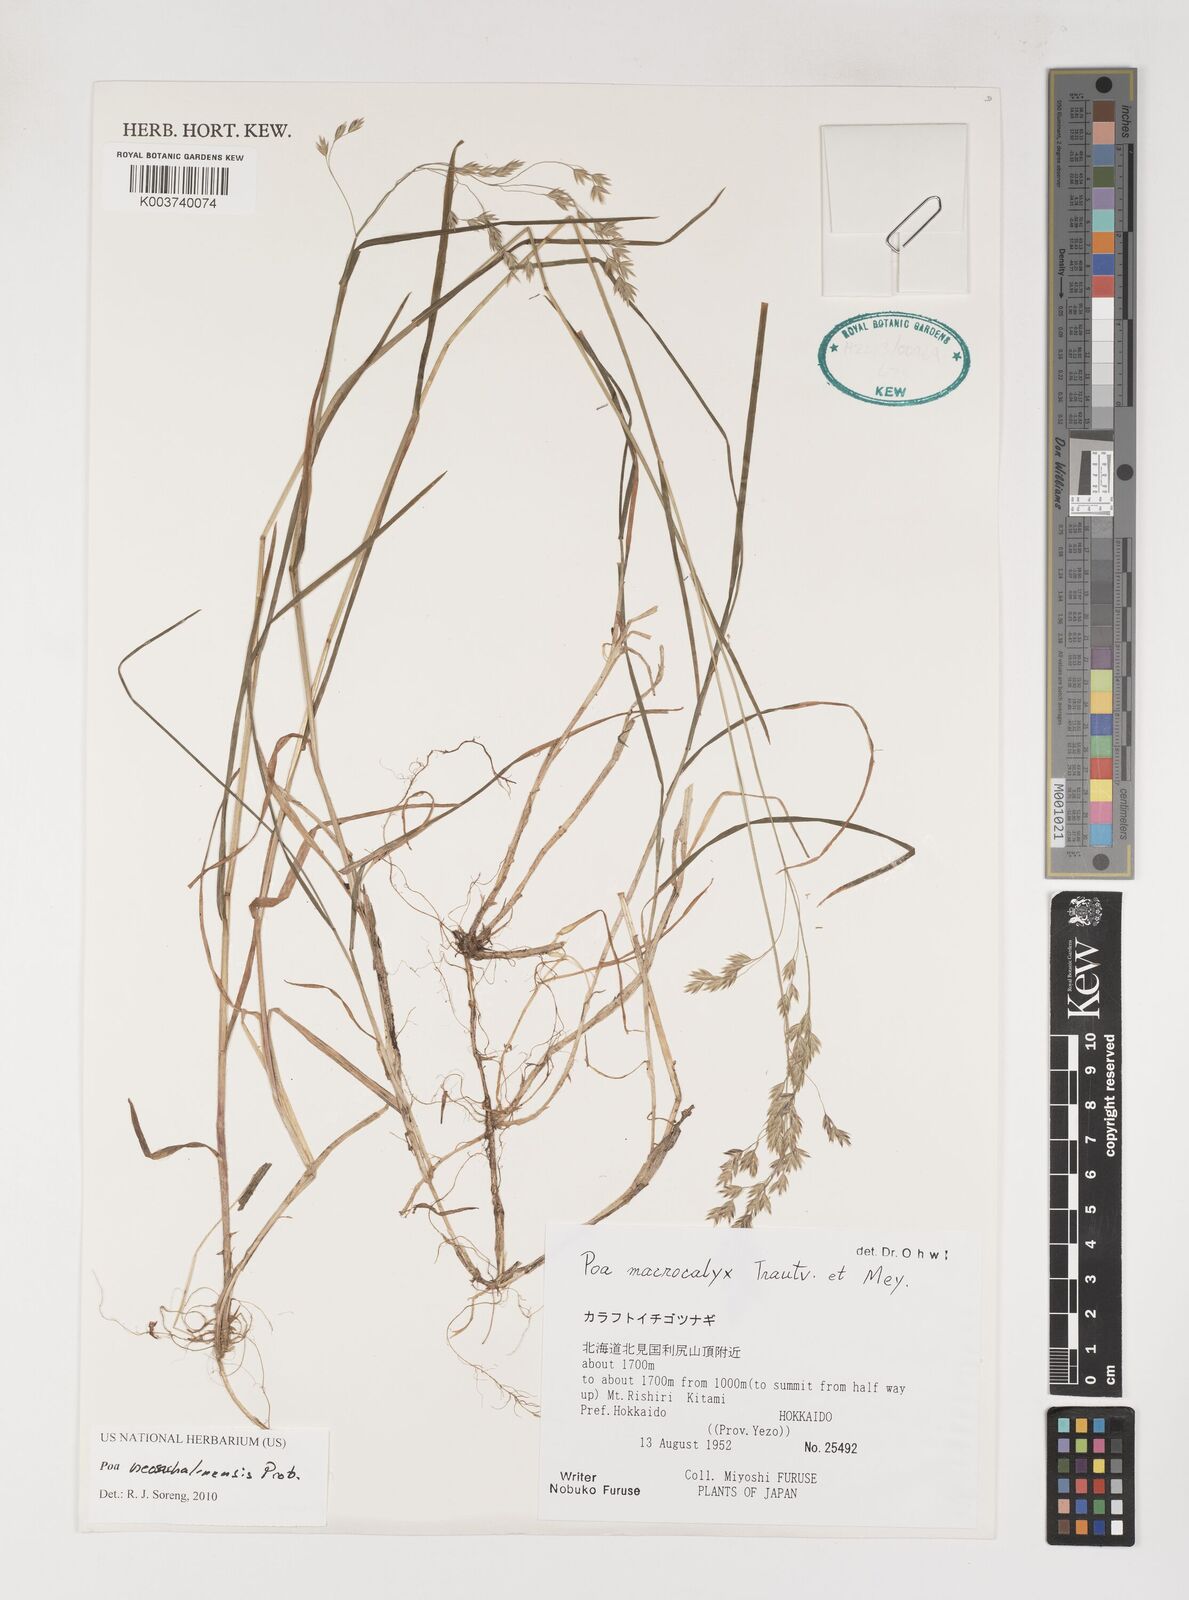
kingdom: Plantae
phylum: Tracheophyta
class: Liliopsida
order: Poales
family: Poaceae
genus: Poa
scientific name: Poa finitima
